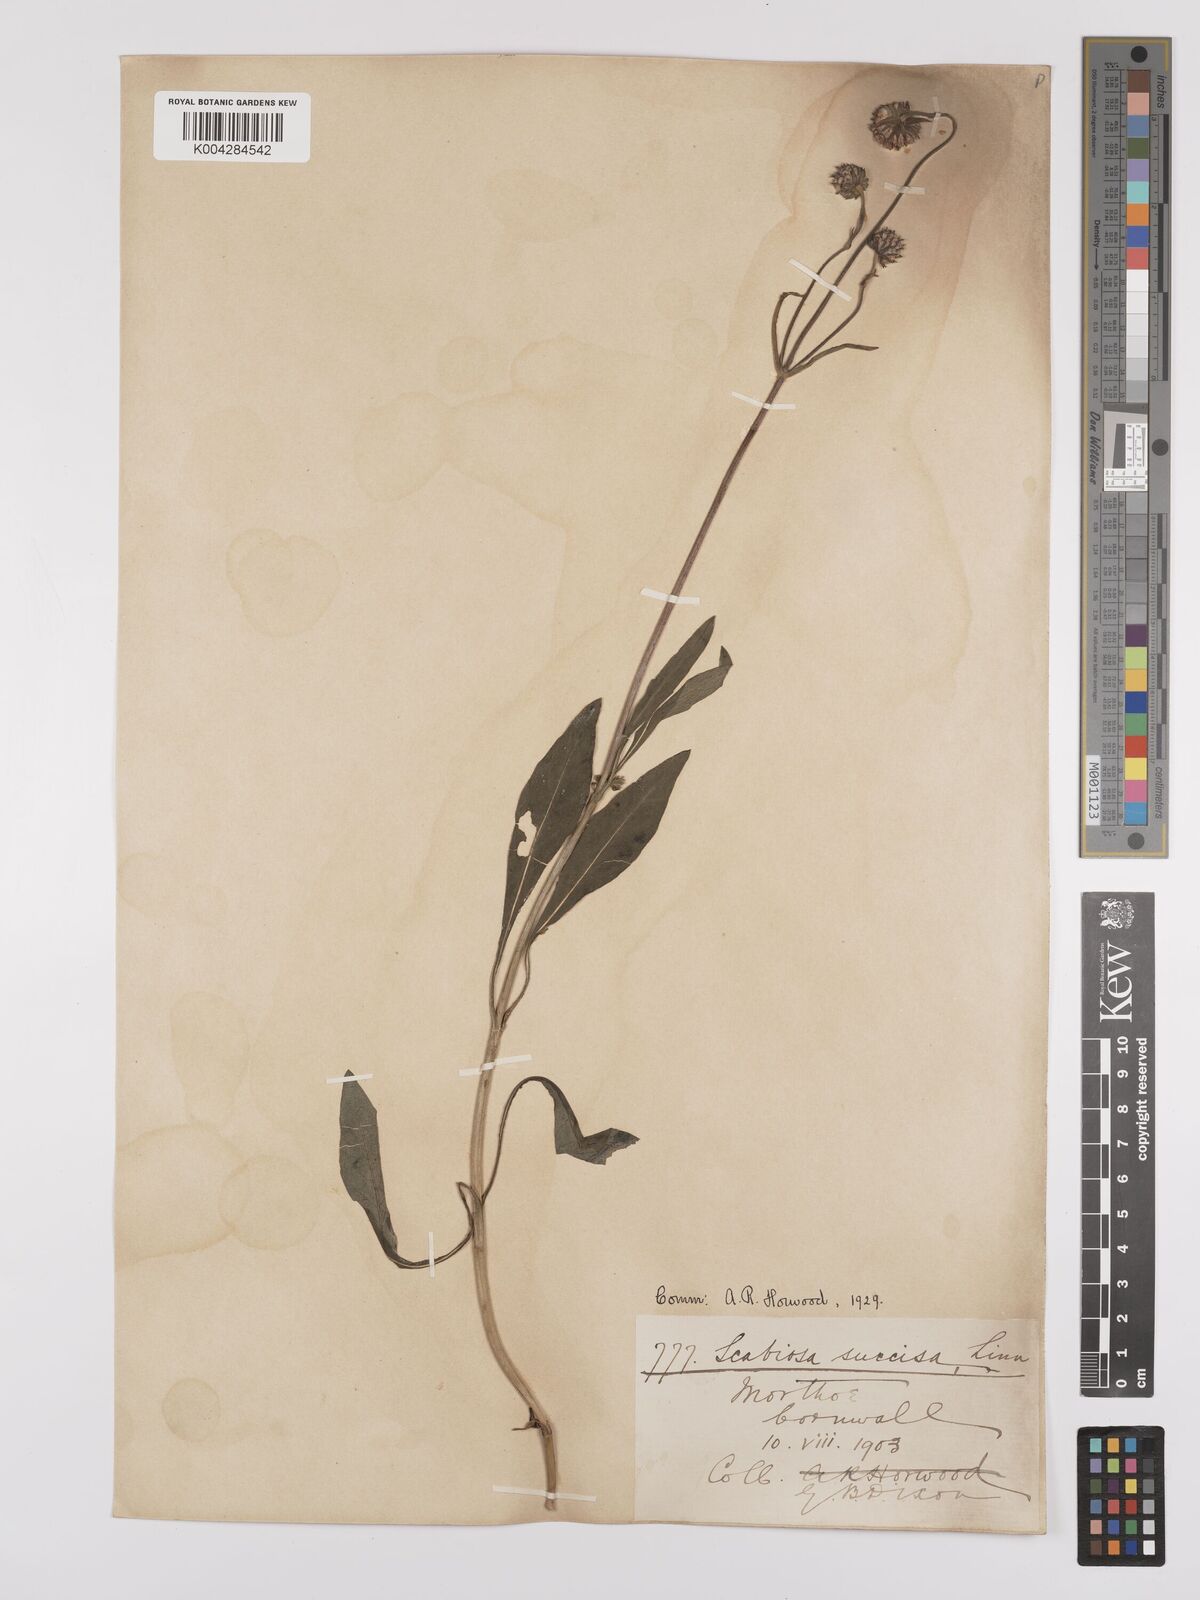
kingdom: Plantae
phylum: Tracheophyta
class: Magnoliopsida
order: Dipsacales
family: Caprifoliaceae
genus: Succisa
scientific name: Succisa pratensis
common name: Devil's-bit
